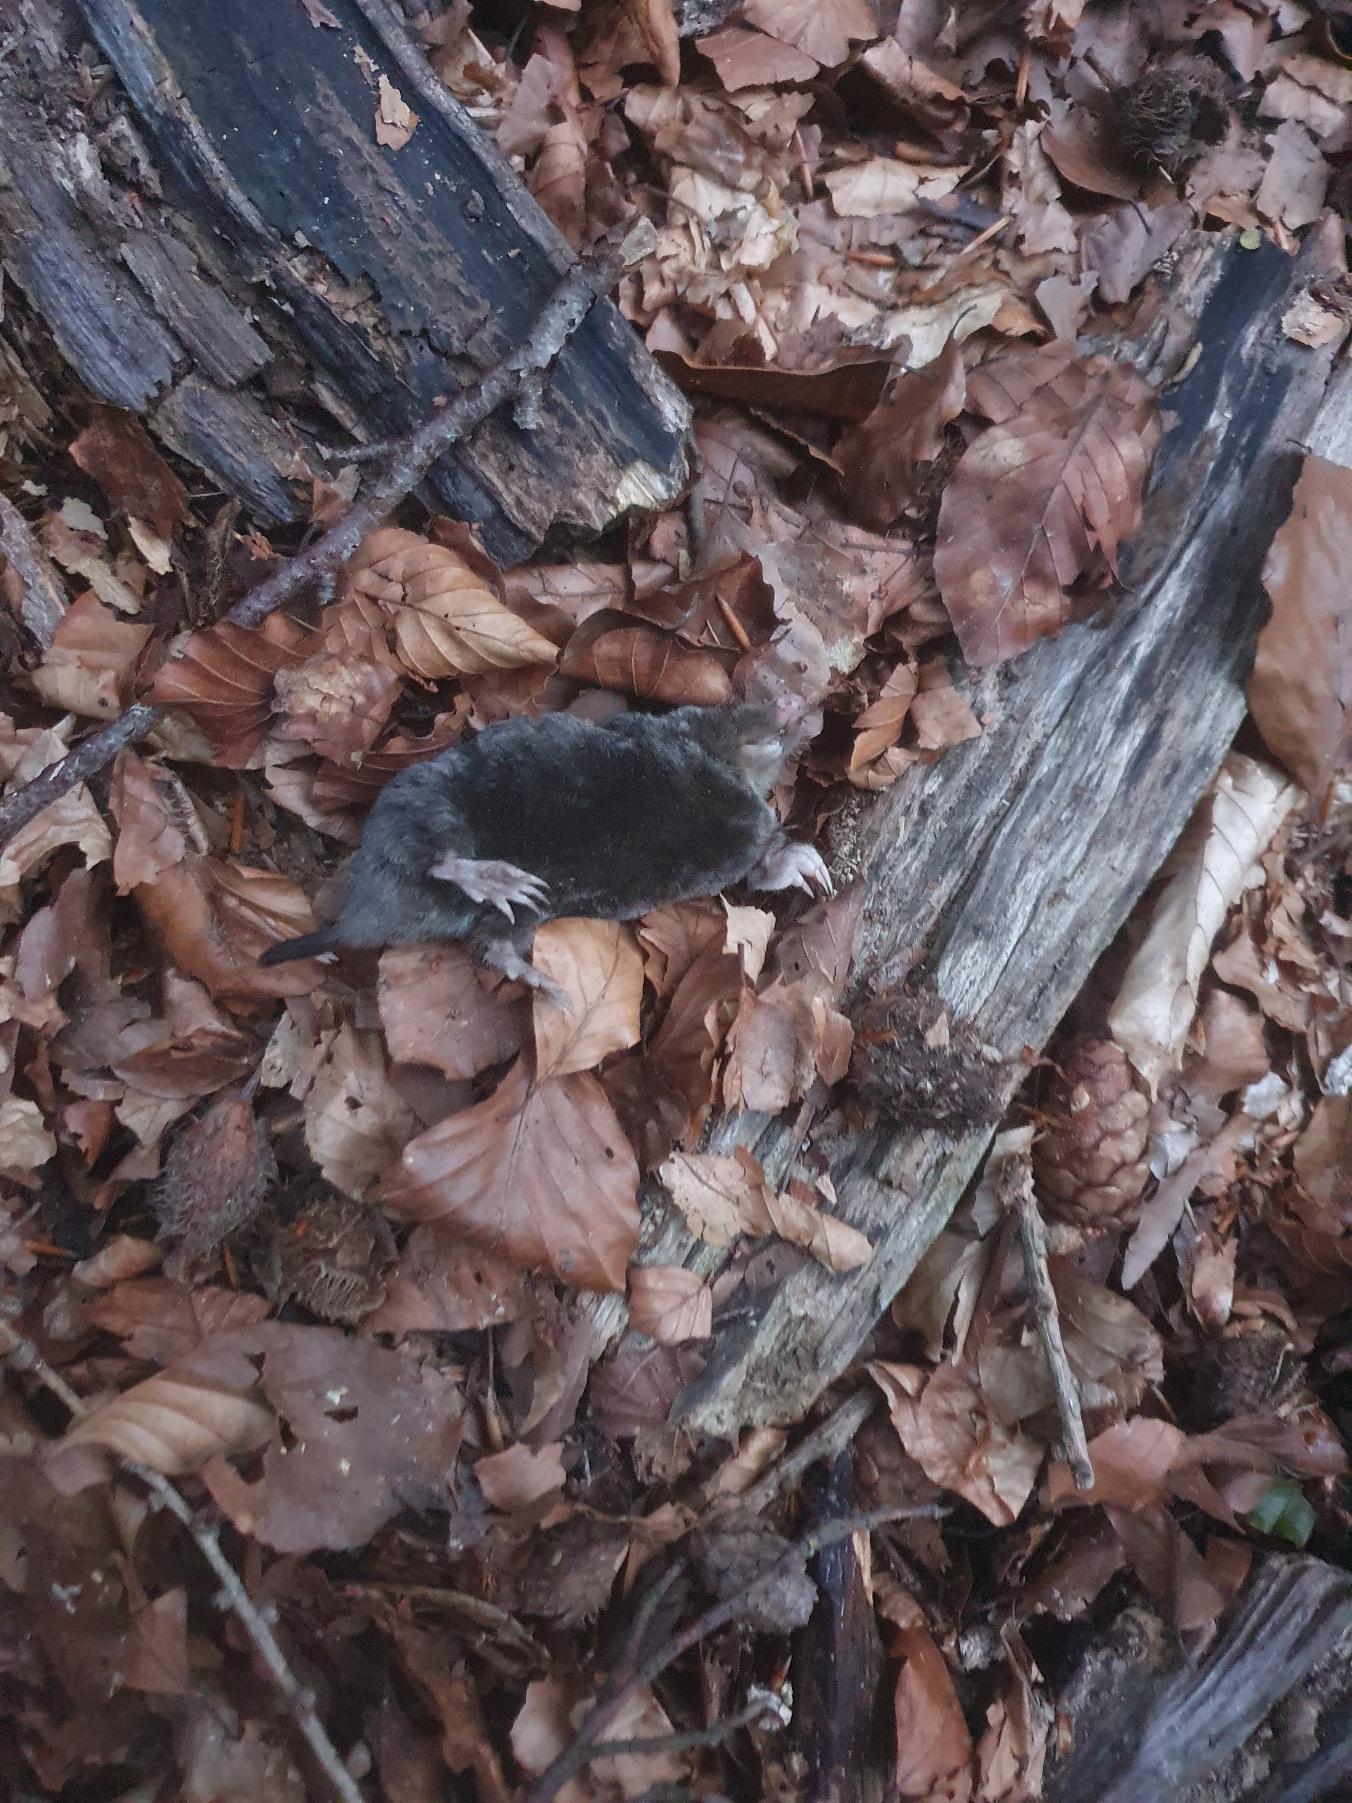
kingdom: Animalia
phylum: Chordata
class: Mammalia
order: Soricomorpha
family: Talpidae
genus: Talpa
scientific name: Talpa europaea
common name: Muldvarp
